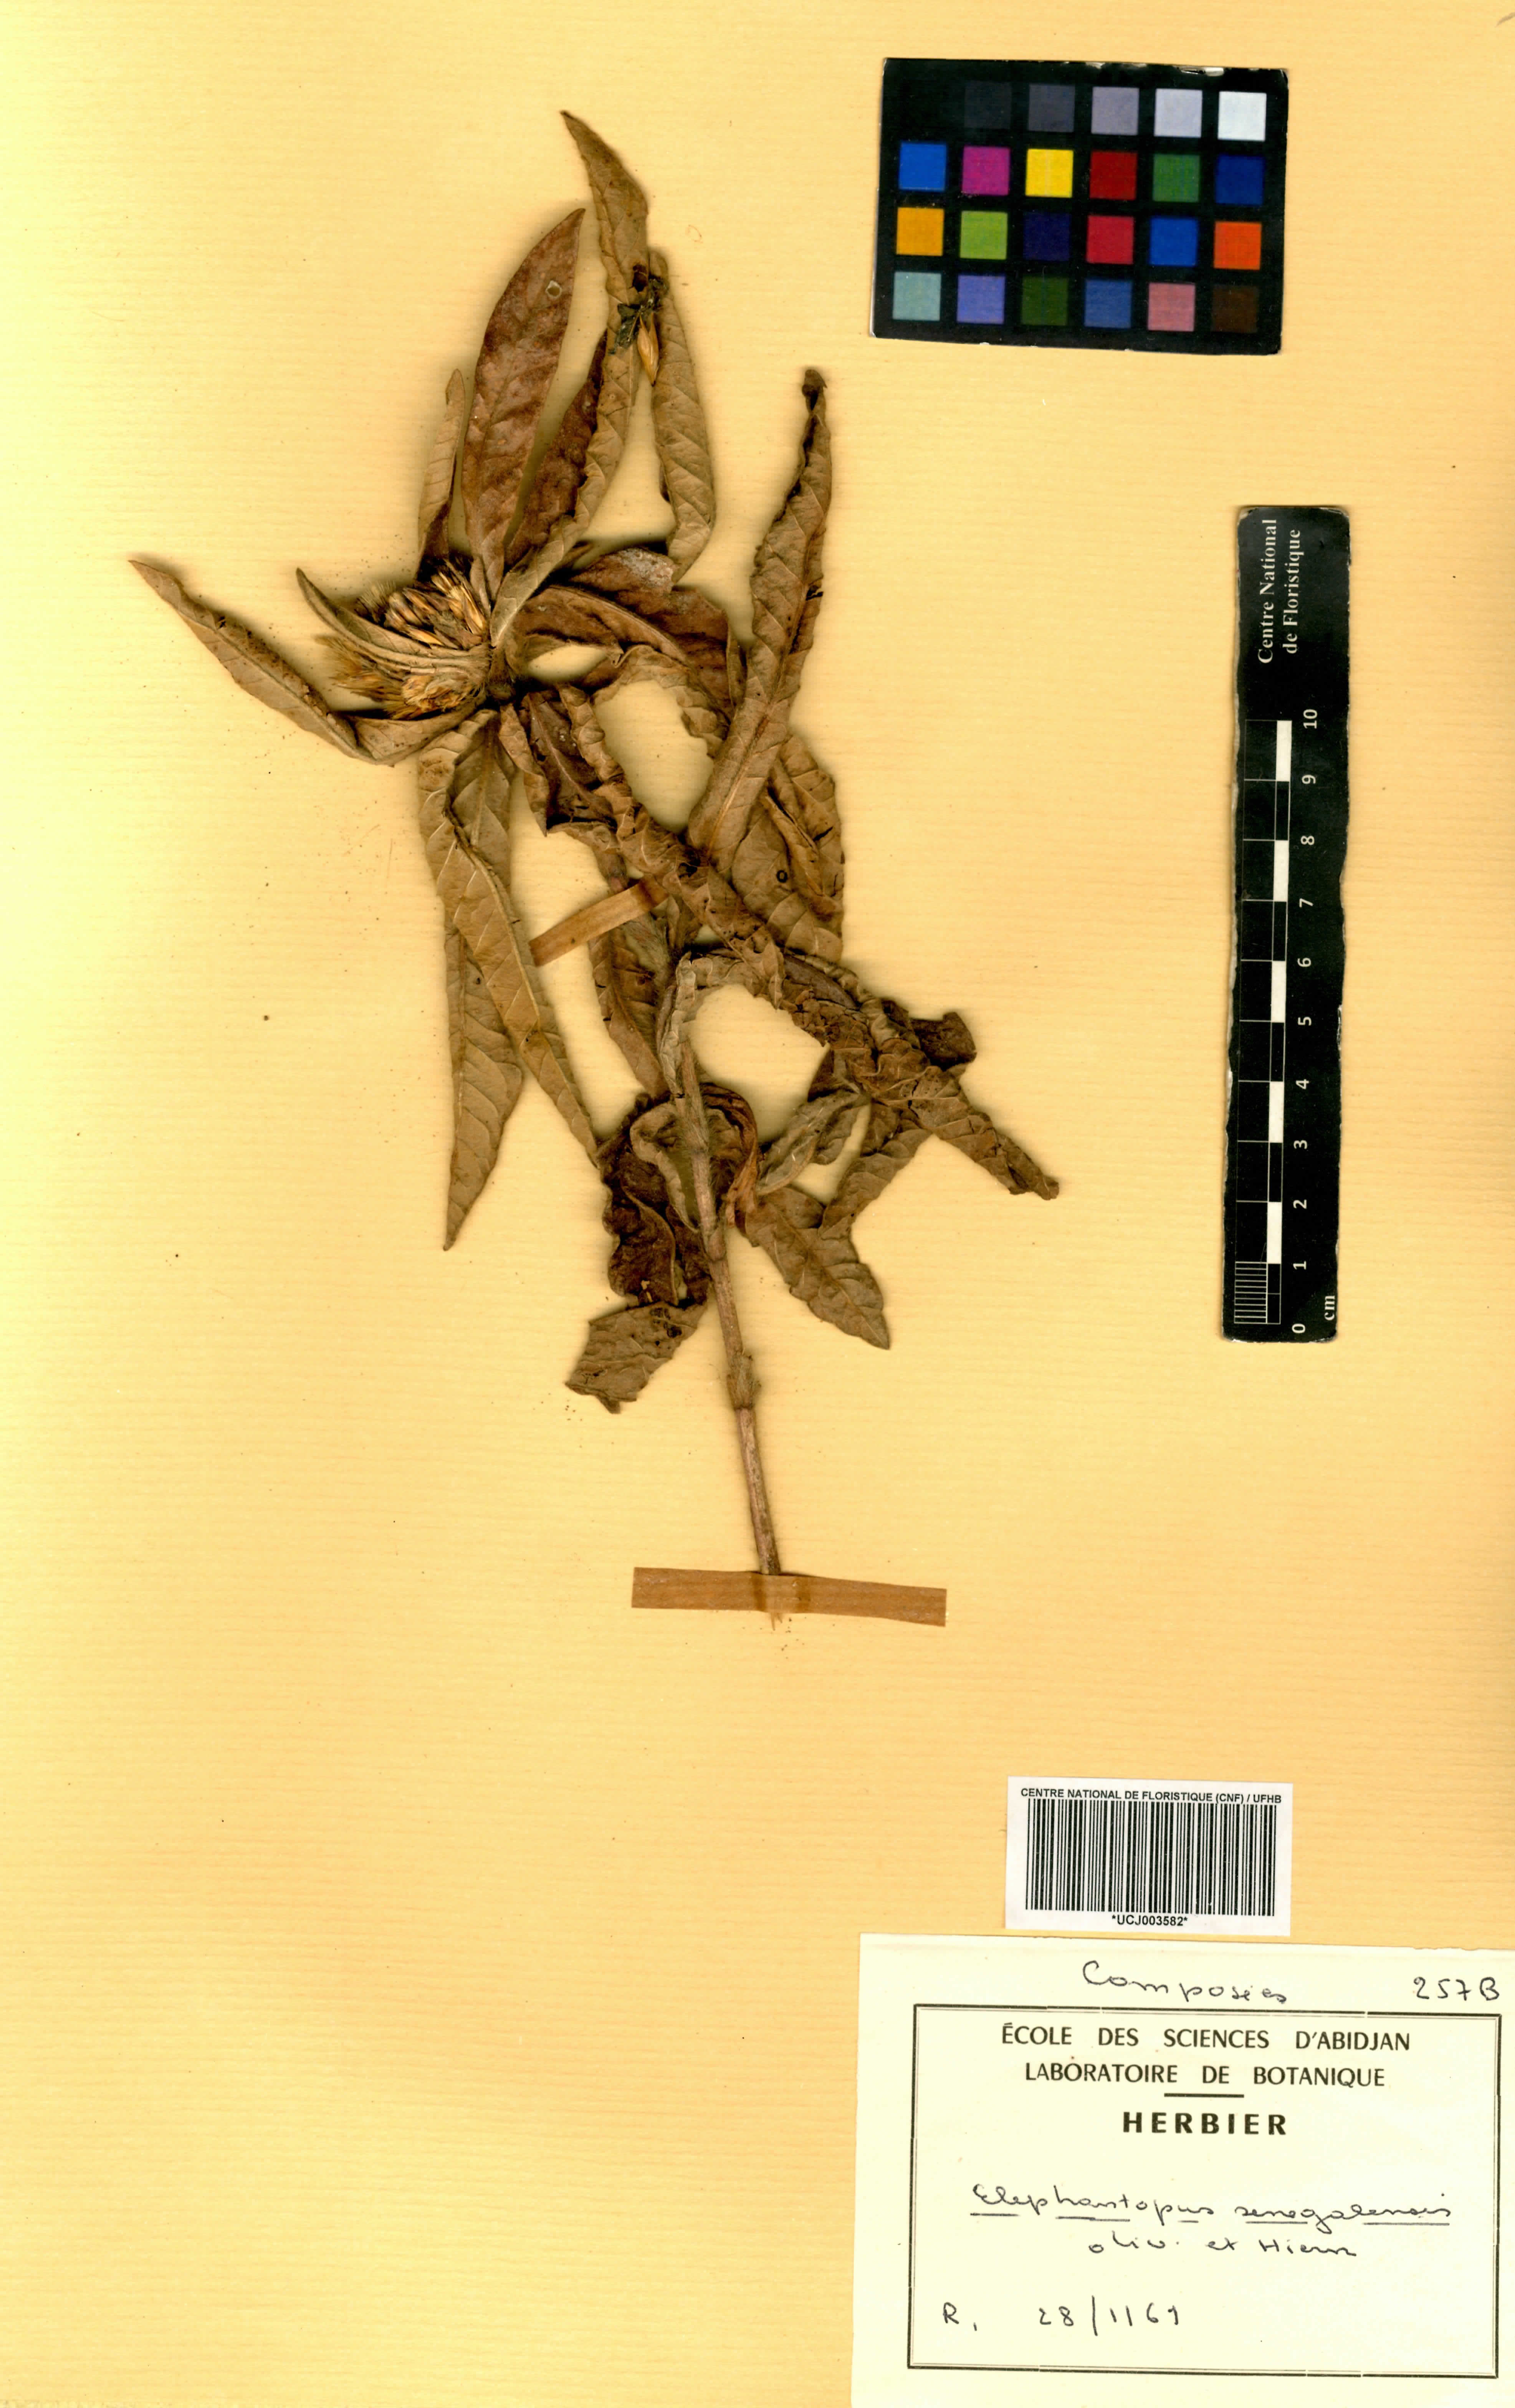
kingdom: Plantae
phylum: Tracheophyta
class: Magnoliopsida
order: Asterales
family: Asteraceae
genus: Elephantopus
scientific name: Elephantopus senegalensis
